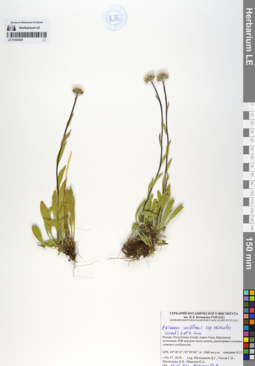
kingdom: Plantae
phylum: Tracheophyta
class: Magnoliopsida
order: Asterales
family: Asteraceae
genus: Erigeron
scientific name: Erigeron eriocalyx
